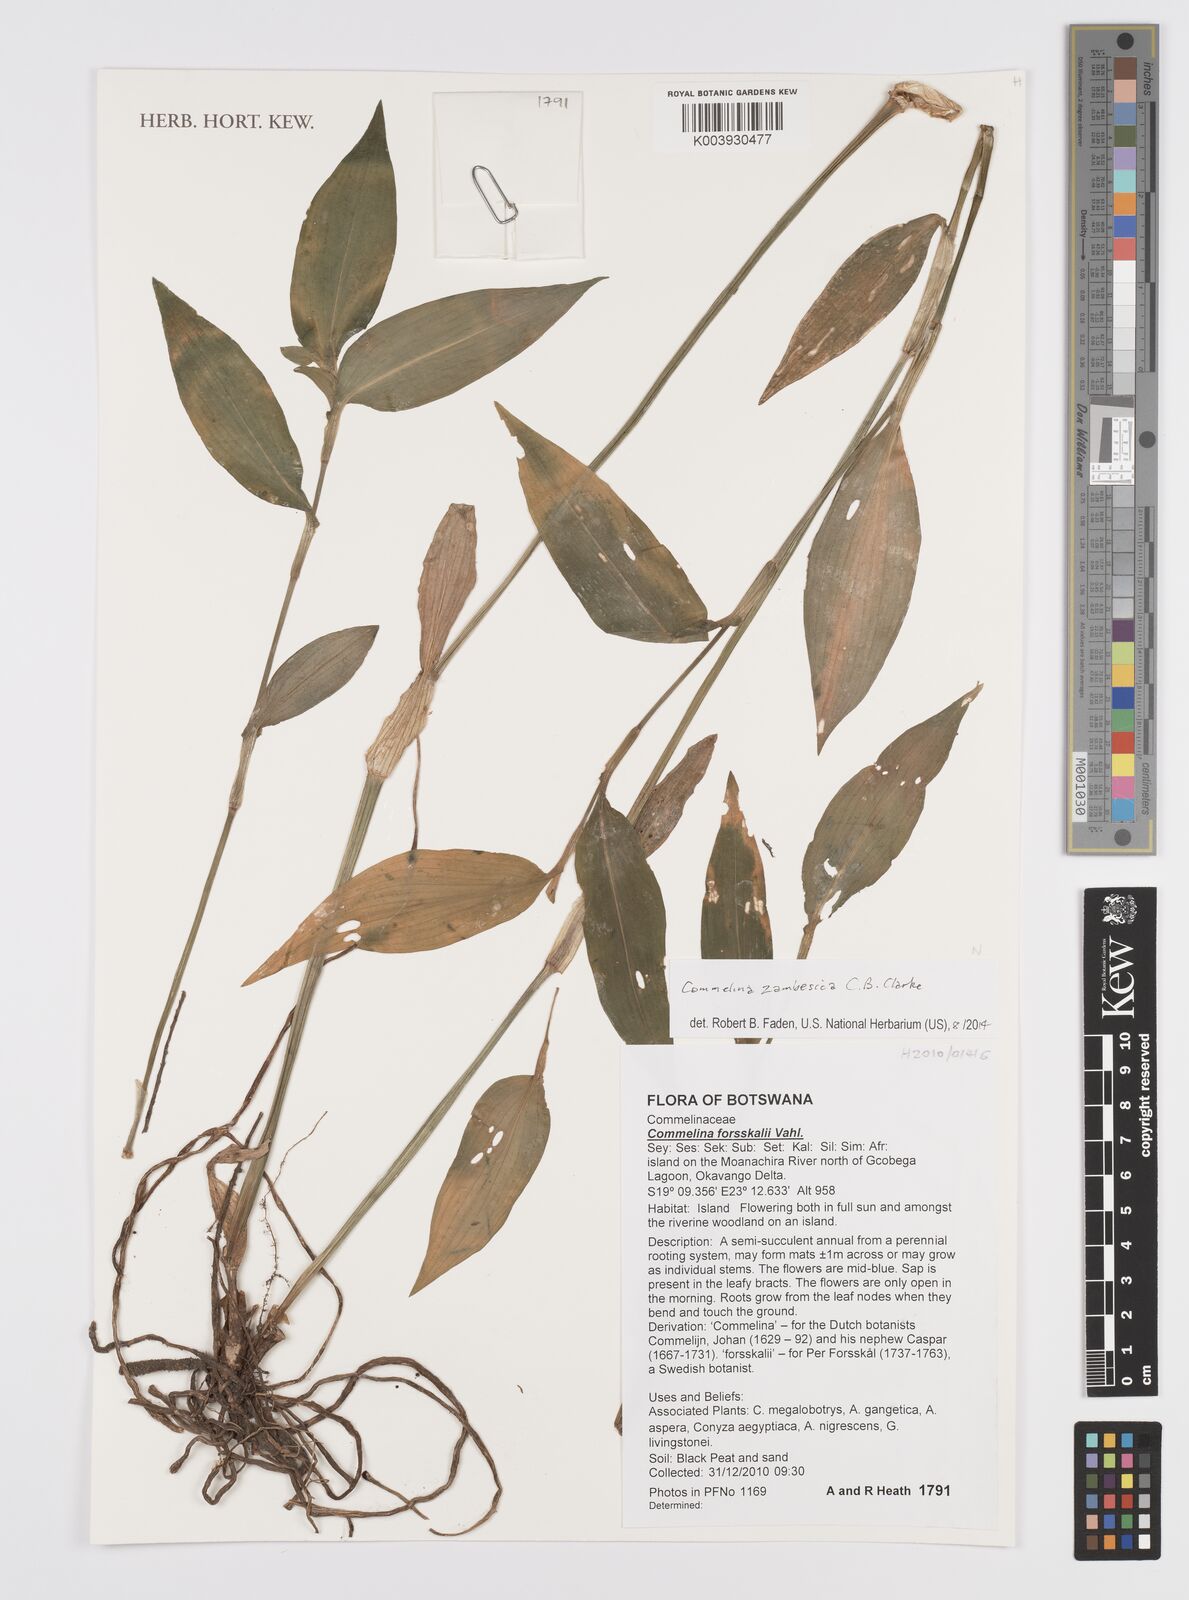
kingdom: Plantae
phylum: Tracheophyta
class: Liliopsida
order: Commelinales
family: Commelinaceae
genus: Commelina
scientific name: Commelina zambesica
